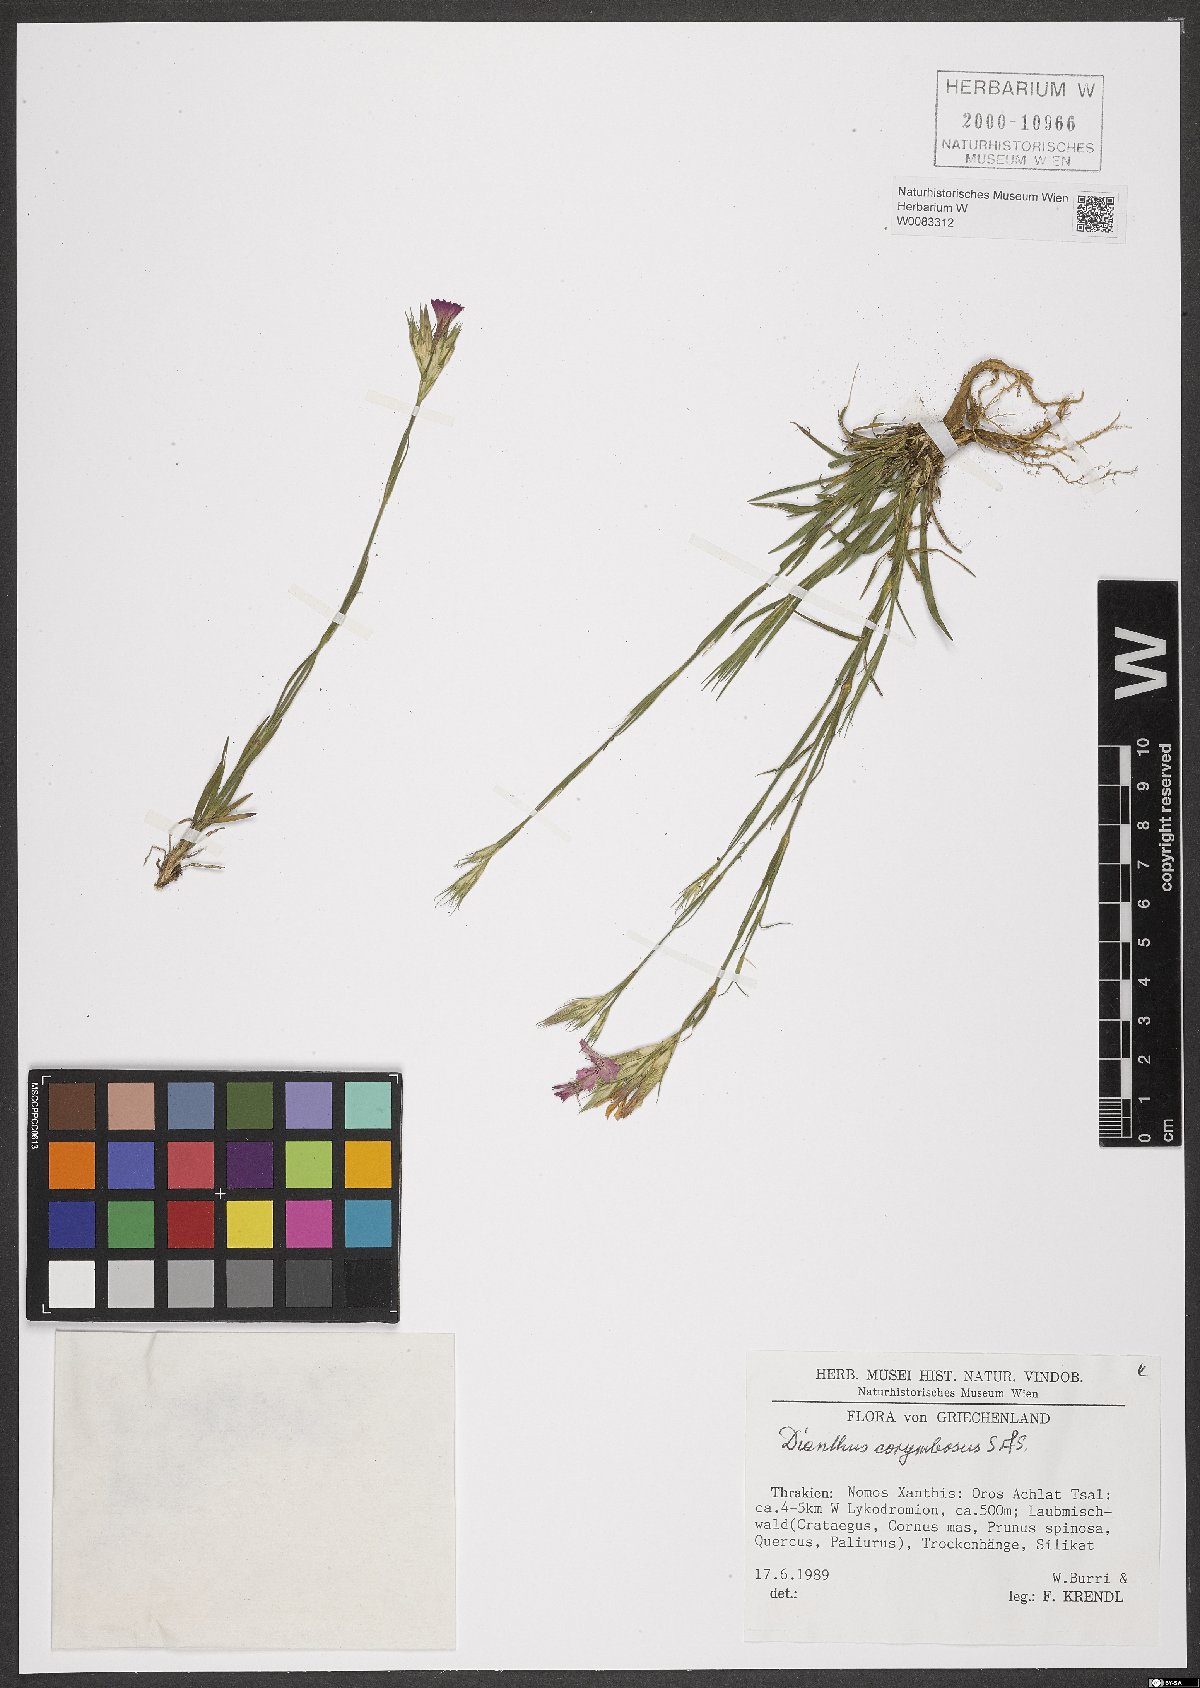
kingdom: Plantae
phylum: Tracheophyta
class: Magnoliopsida
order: Caryophyllales
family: Caryophyllaceae
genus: Dianthus
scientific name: Dianthus corymbosus
